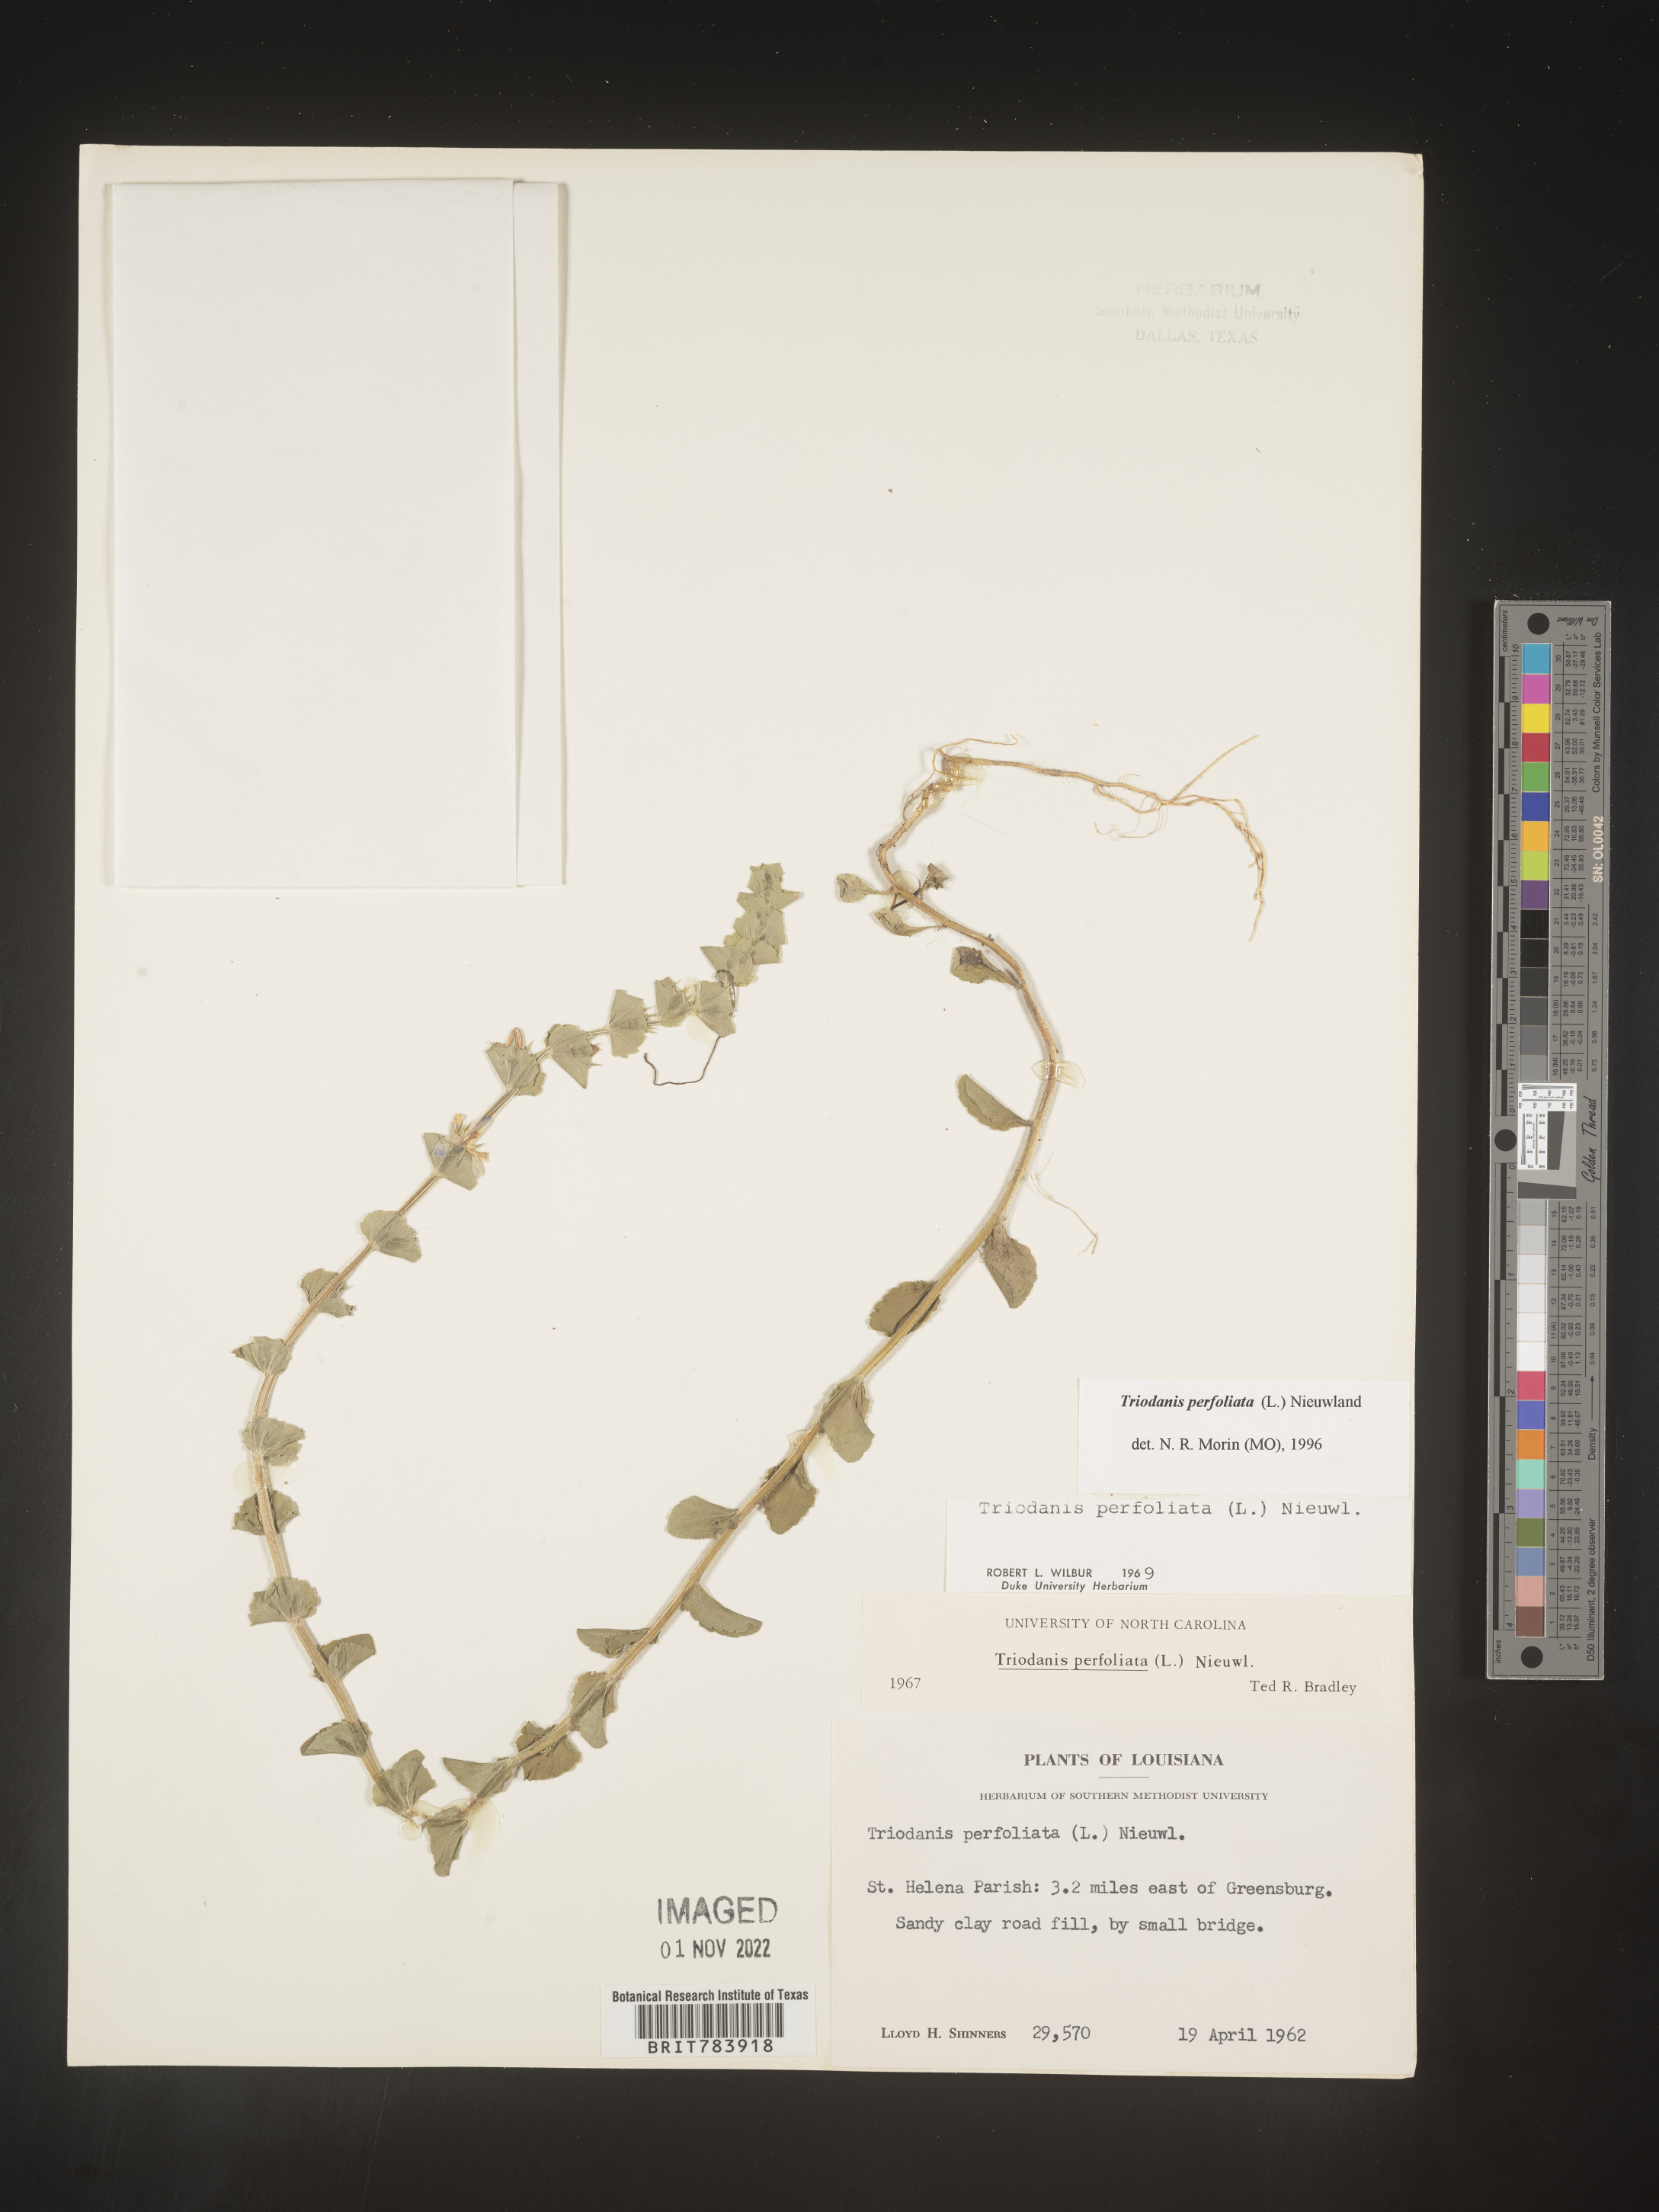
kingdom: Plantae
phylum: Tracheophyta
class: Magnoliopsida
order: Asterales
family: Campanulaceae
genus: Triodanis
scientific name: Triodanis perfoliata
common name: Clasping venus' looking-glass
